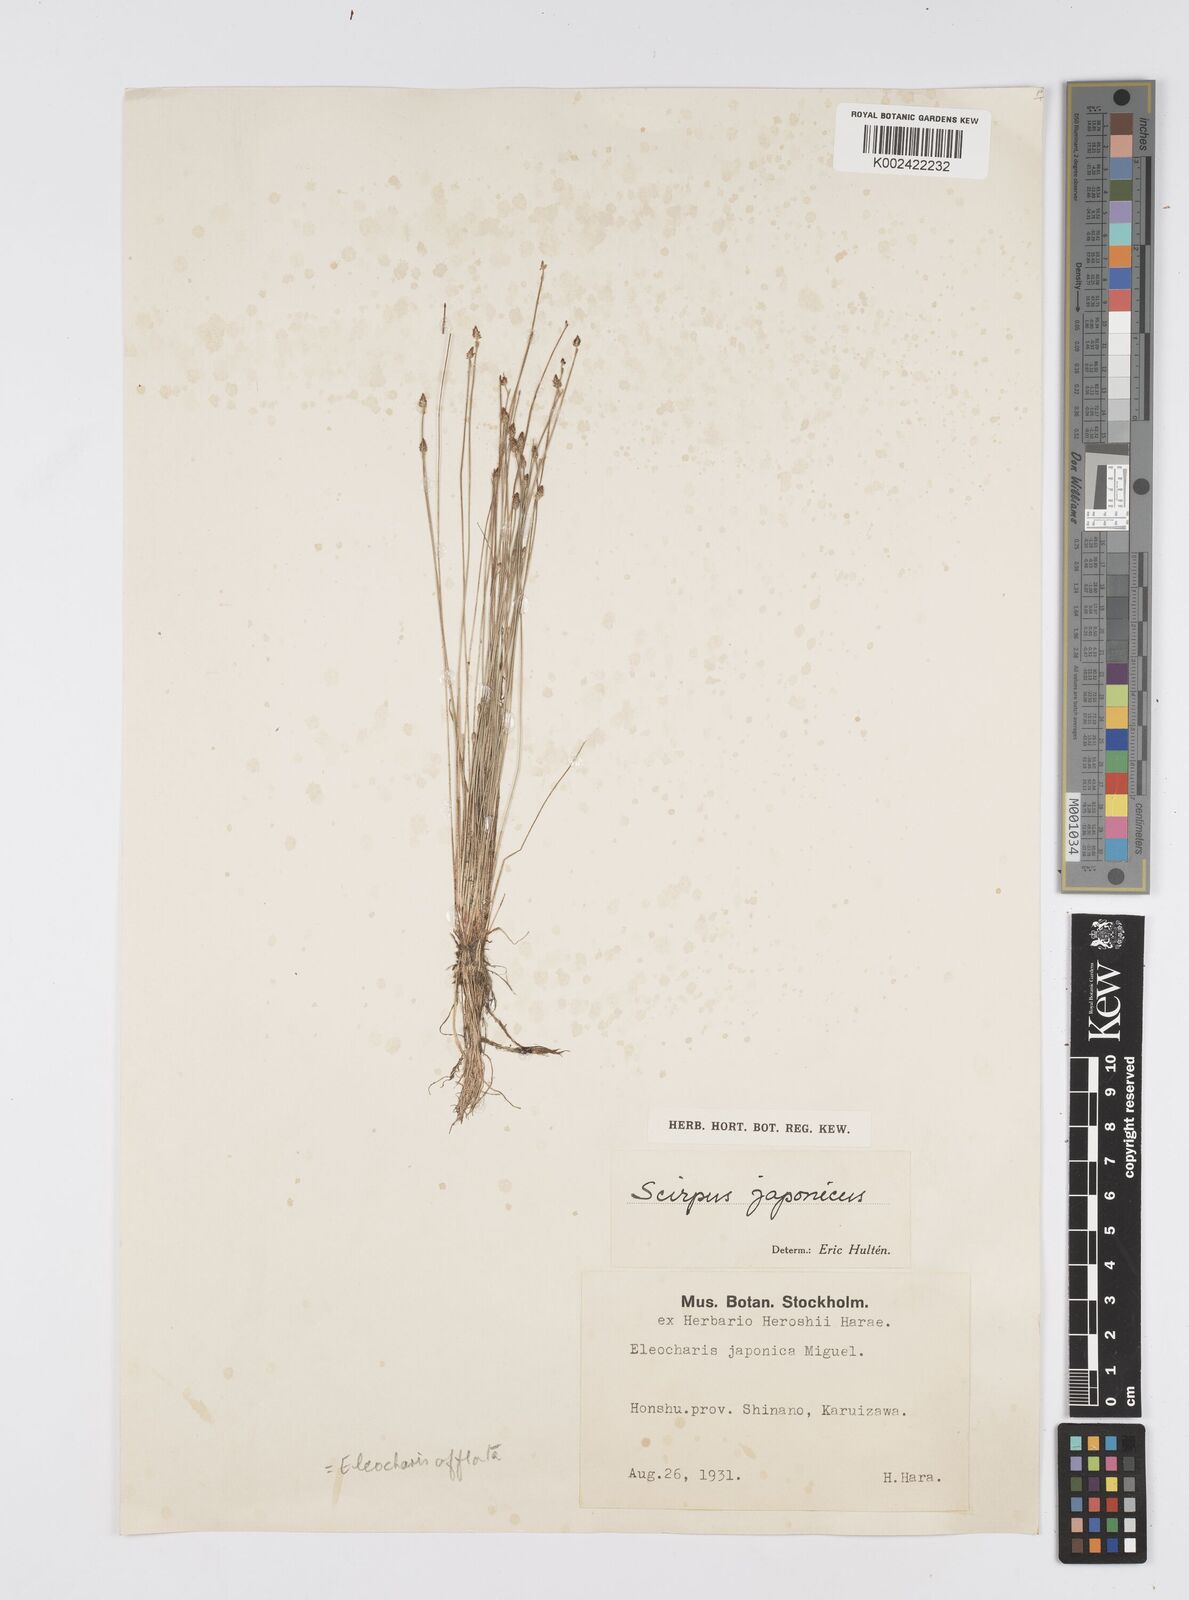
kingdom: Plantae
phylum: Tracheophyta
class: Liliopsida
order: Poales
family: Cyperaceae
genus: Eleocharis
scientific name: Eleocharis pellucida
